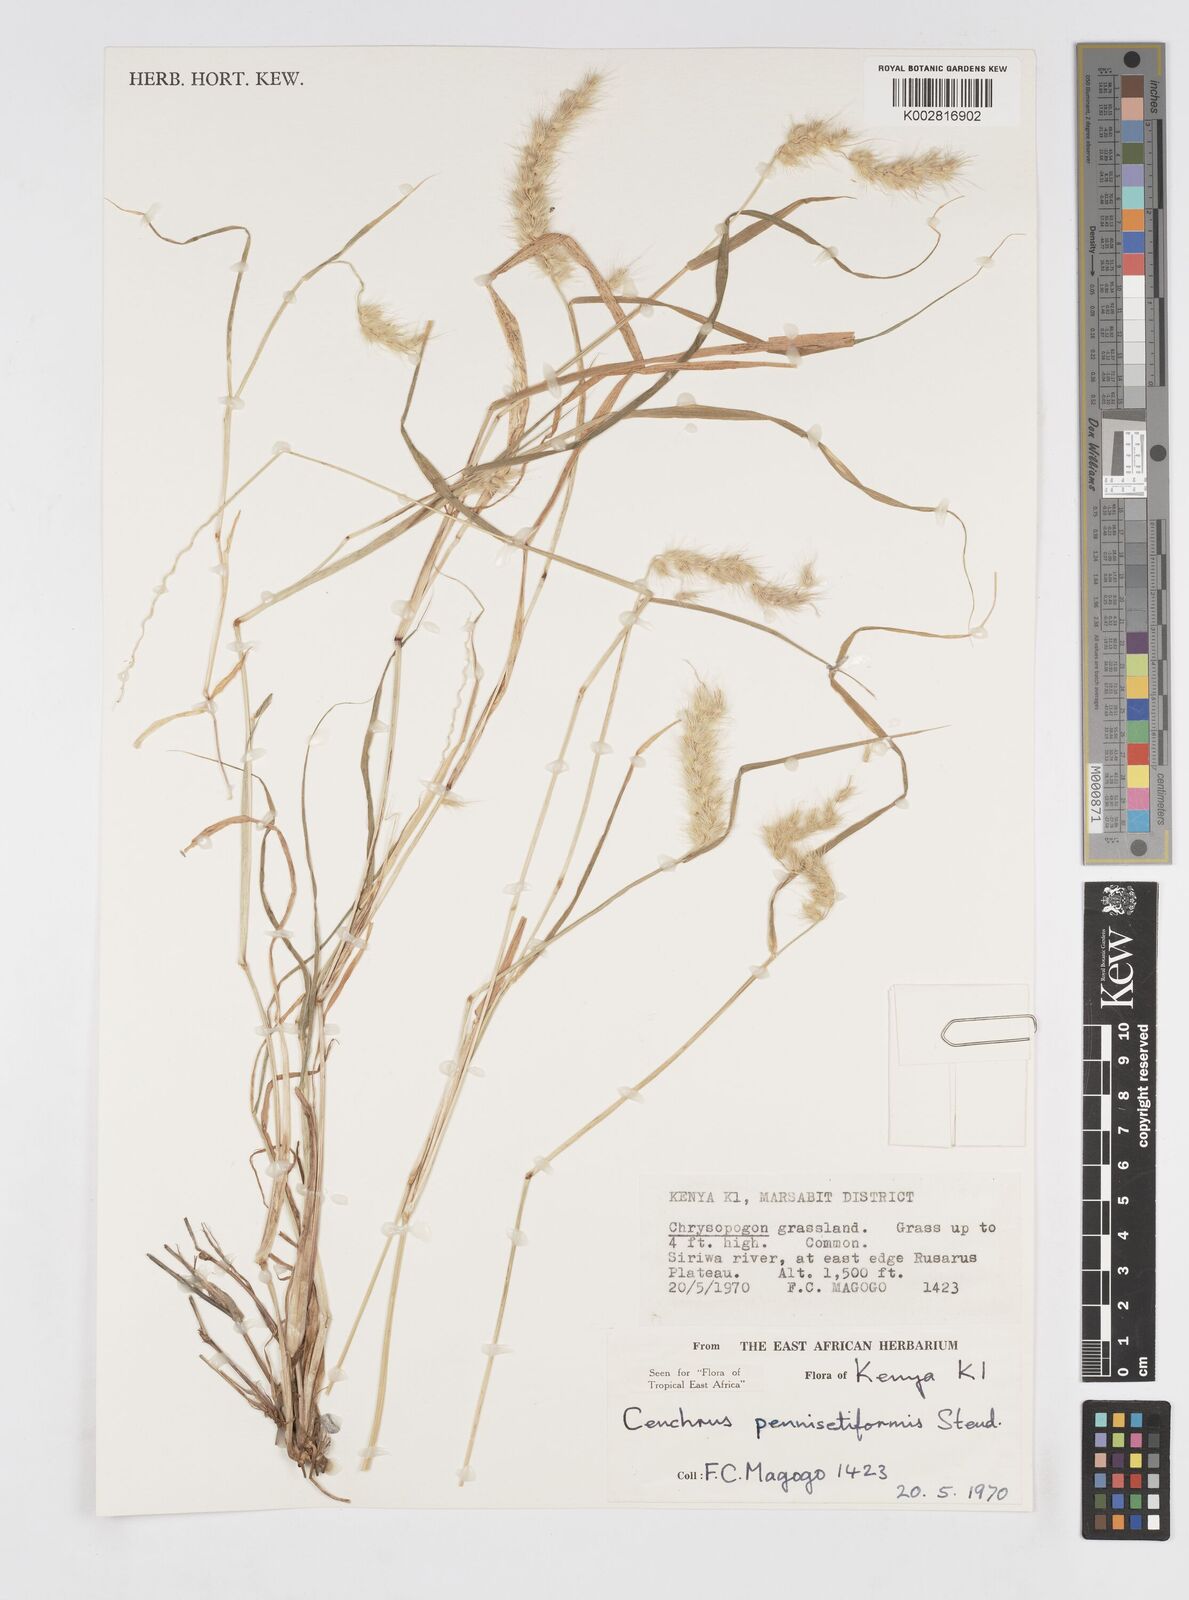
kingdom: Plantae
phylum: Tracheophyta
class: Liliopsida
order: Poales
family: Poaceae
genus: Cenchrus
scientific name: Cenchrus pennisetiformis
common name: Cloncurry
